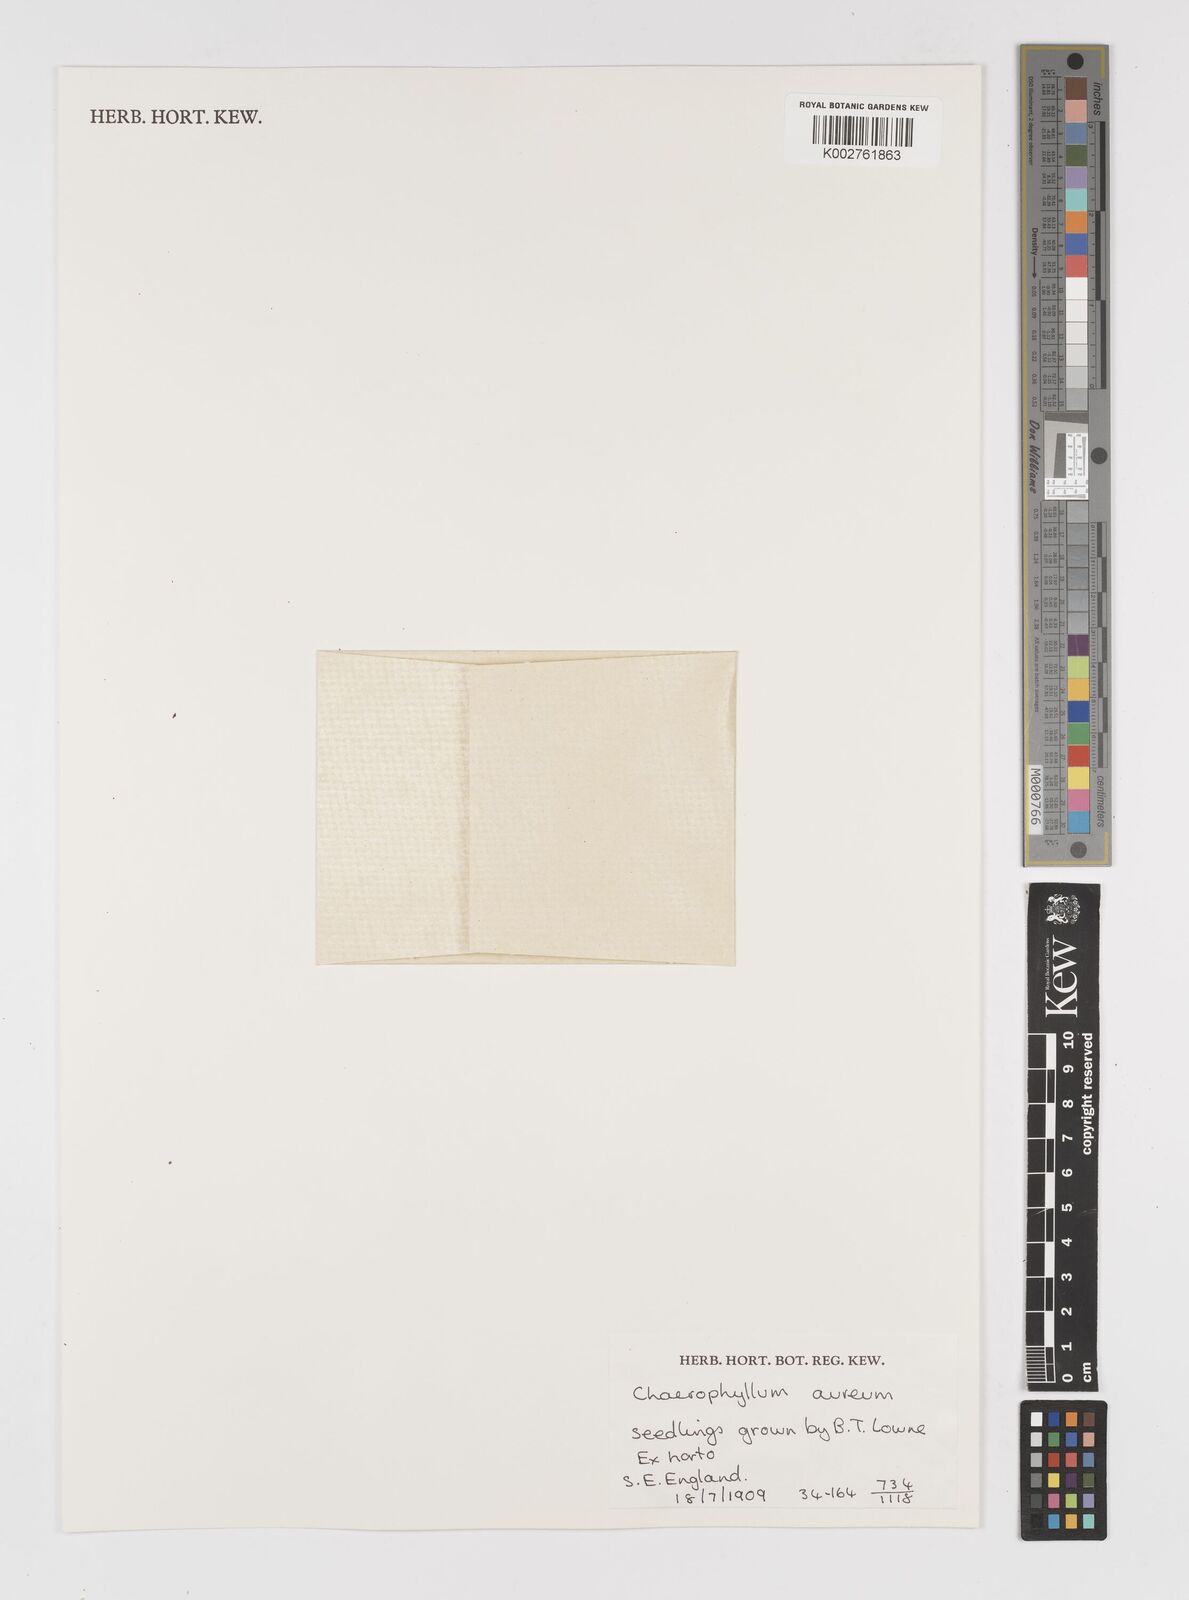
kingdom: Plantae
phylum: Tracheophyta
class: Magnoliopsida
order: Apiales
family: Apiaceae
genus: Chaerophyllum
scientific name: Chaerophyllum aureum
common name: Golden chervil
